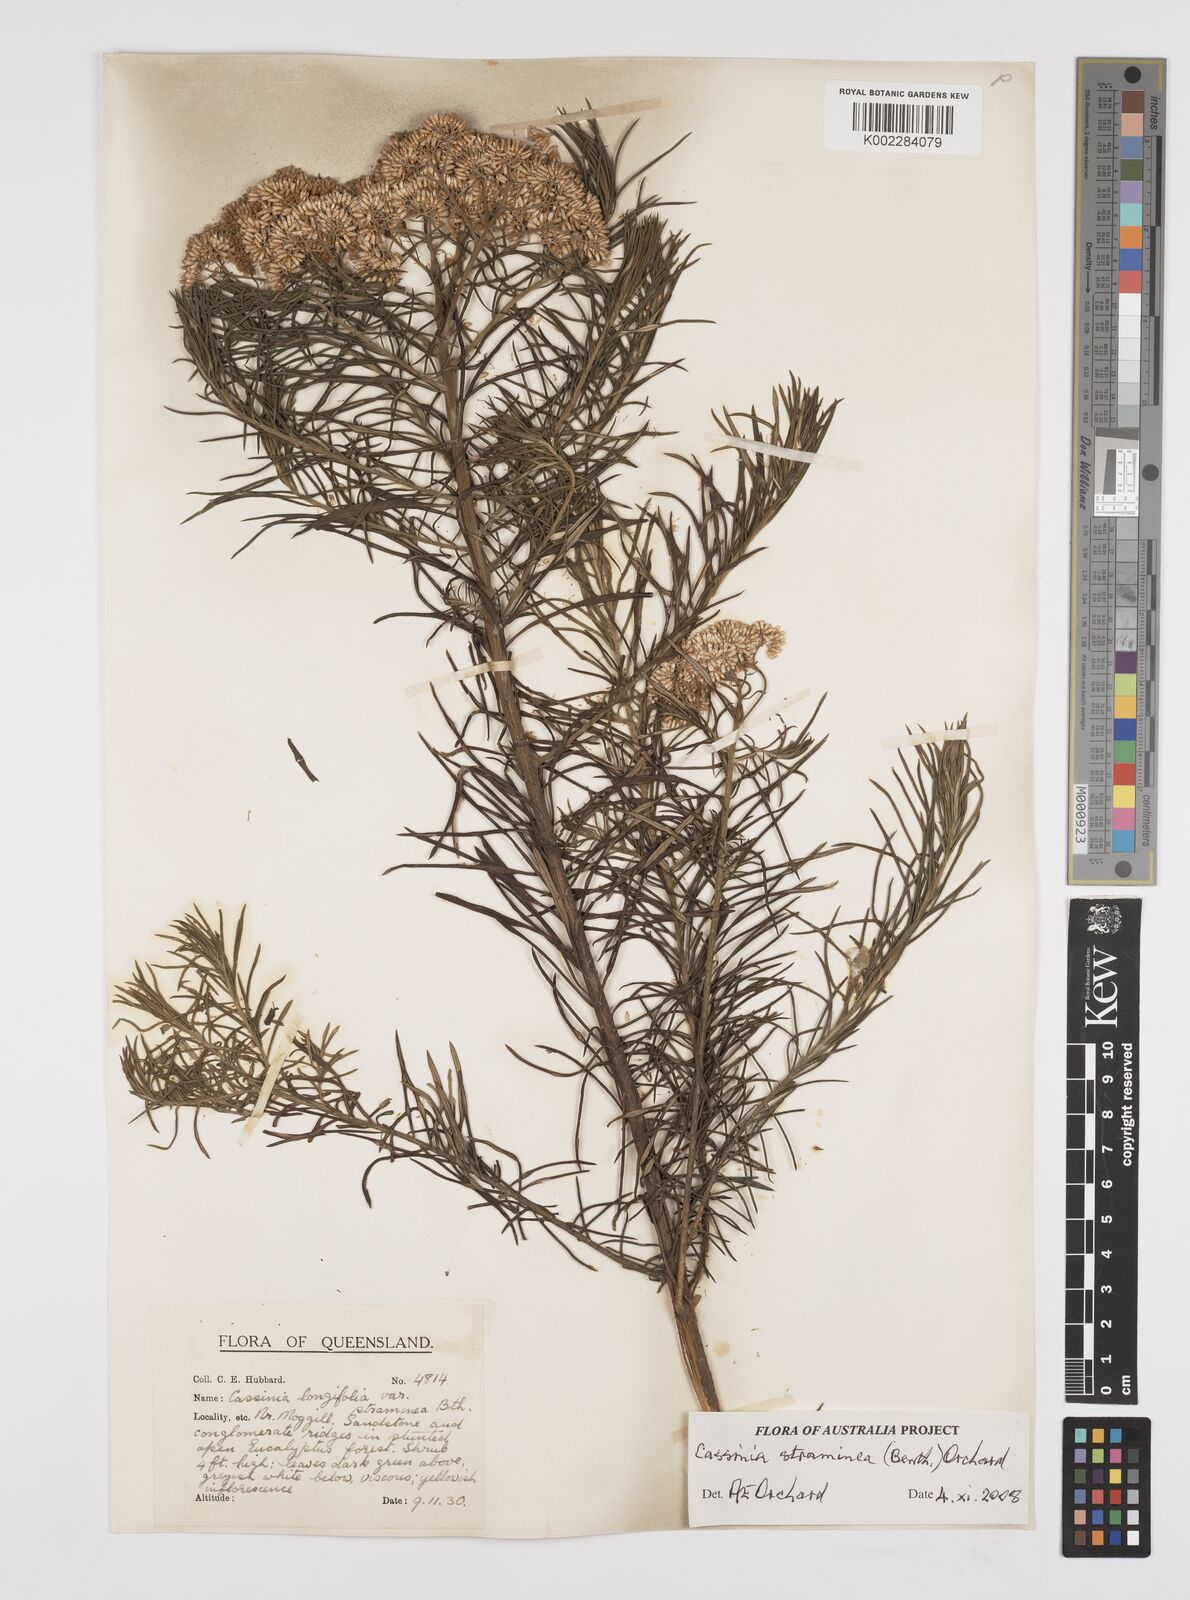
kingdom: Plantae
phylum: Tracheophyta
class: Magnoliopsida
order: Asterales
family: Asteraceae
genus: Cassinia
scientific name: Cassinia straminea
